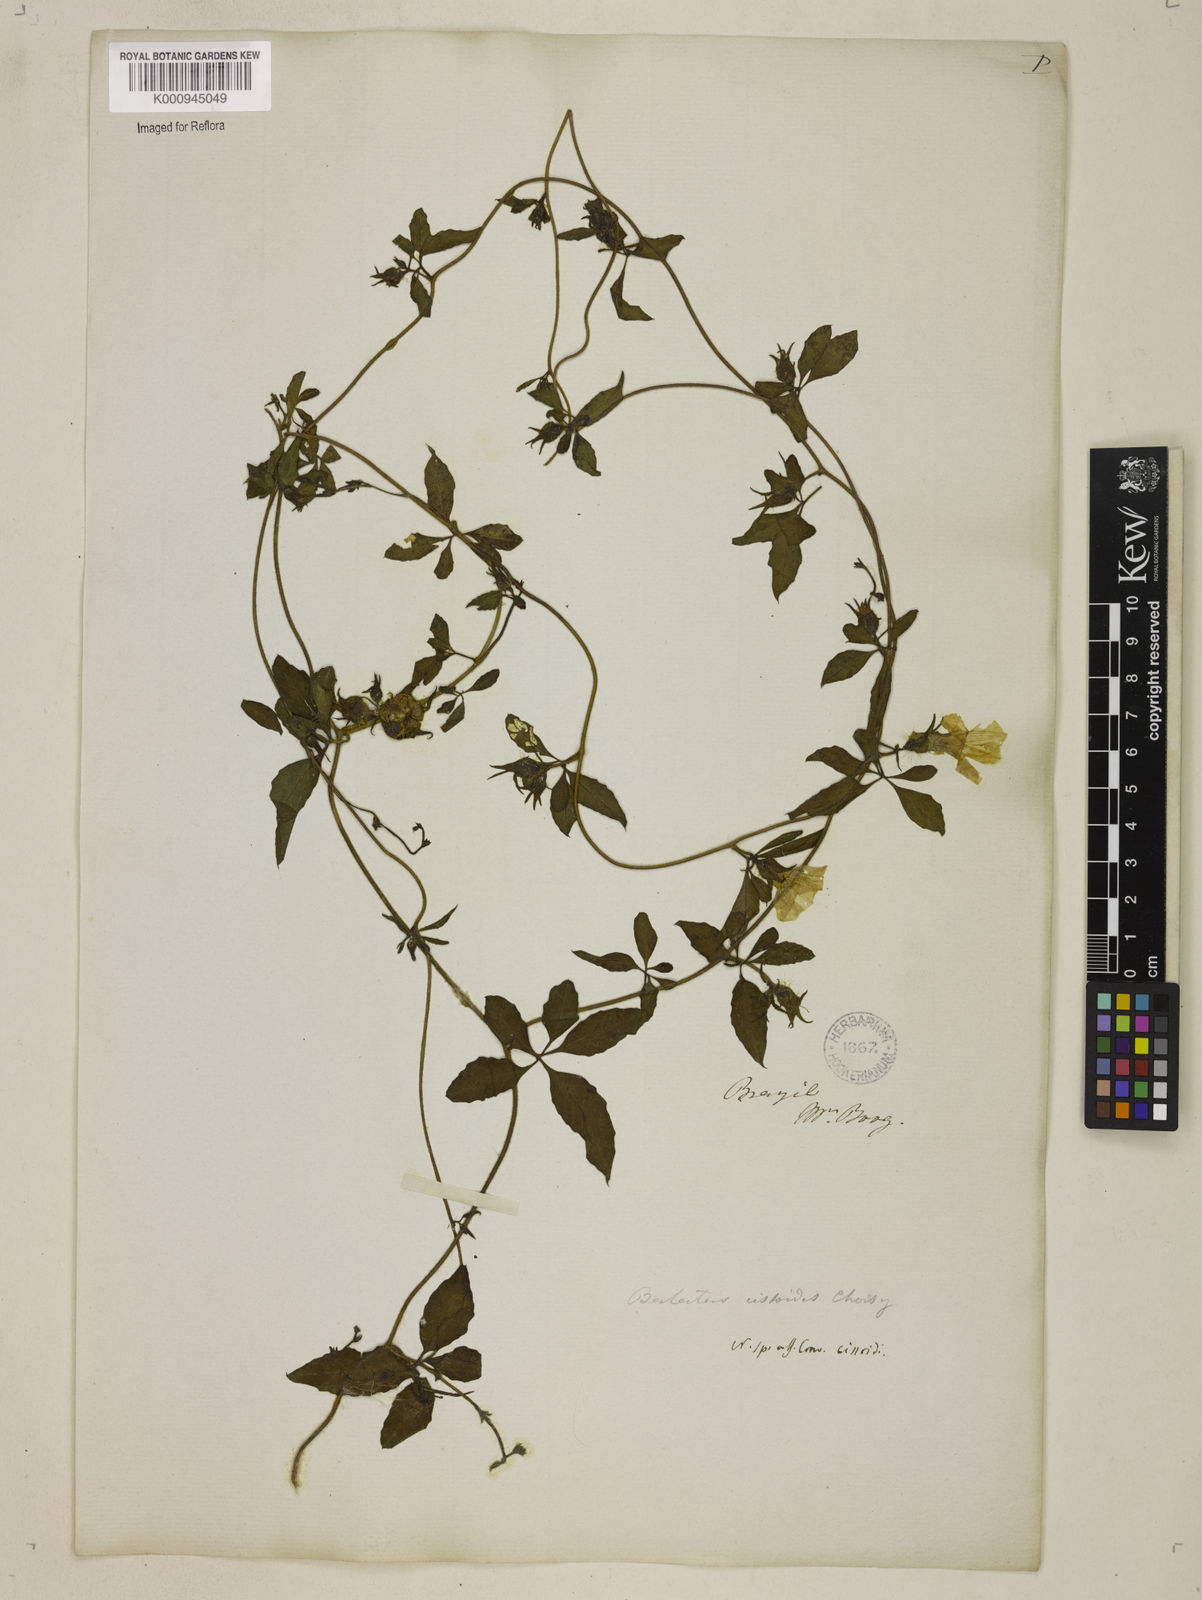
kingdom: Plantae
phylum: Tracheophyta
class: Magnoliopsida
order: Solanales
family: Convolvulaceae
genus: Distimake
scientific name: Distimake cissoides
